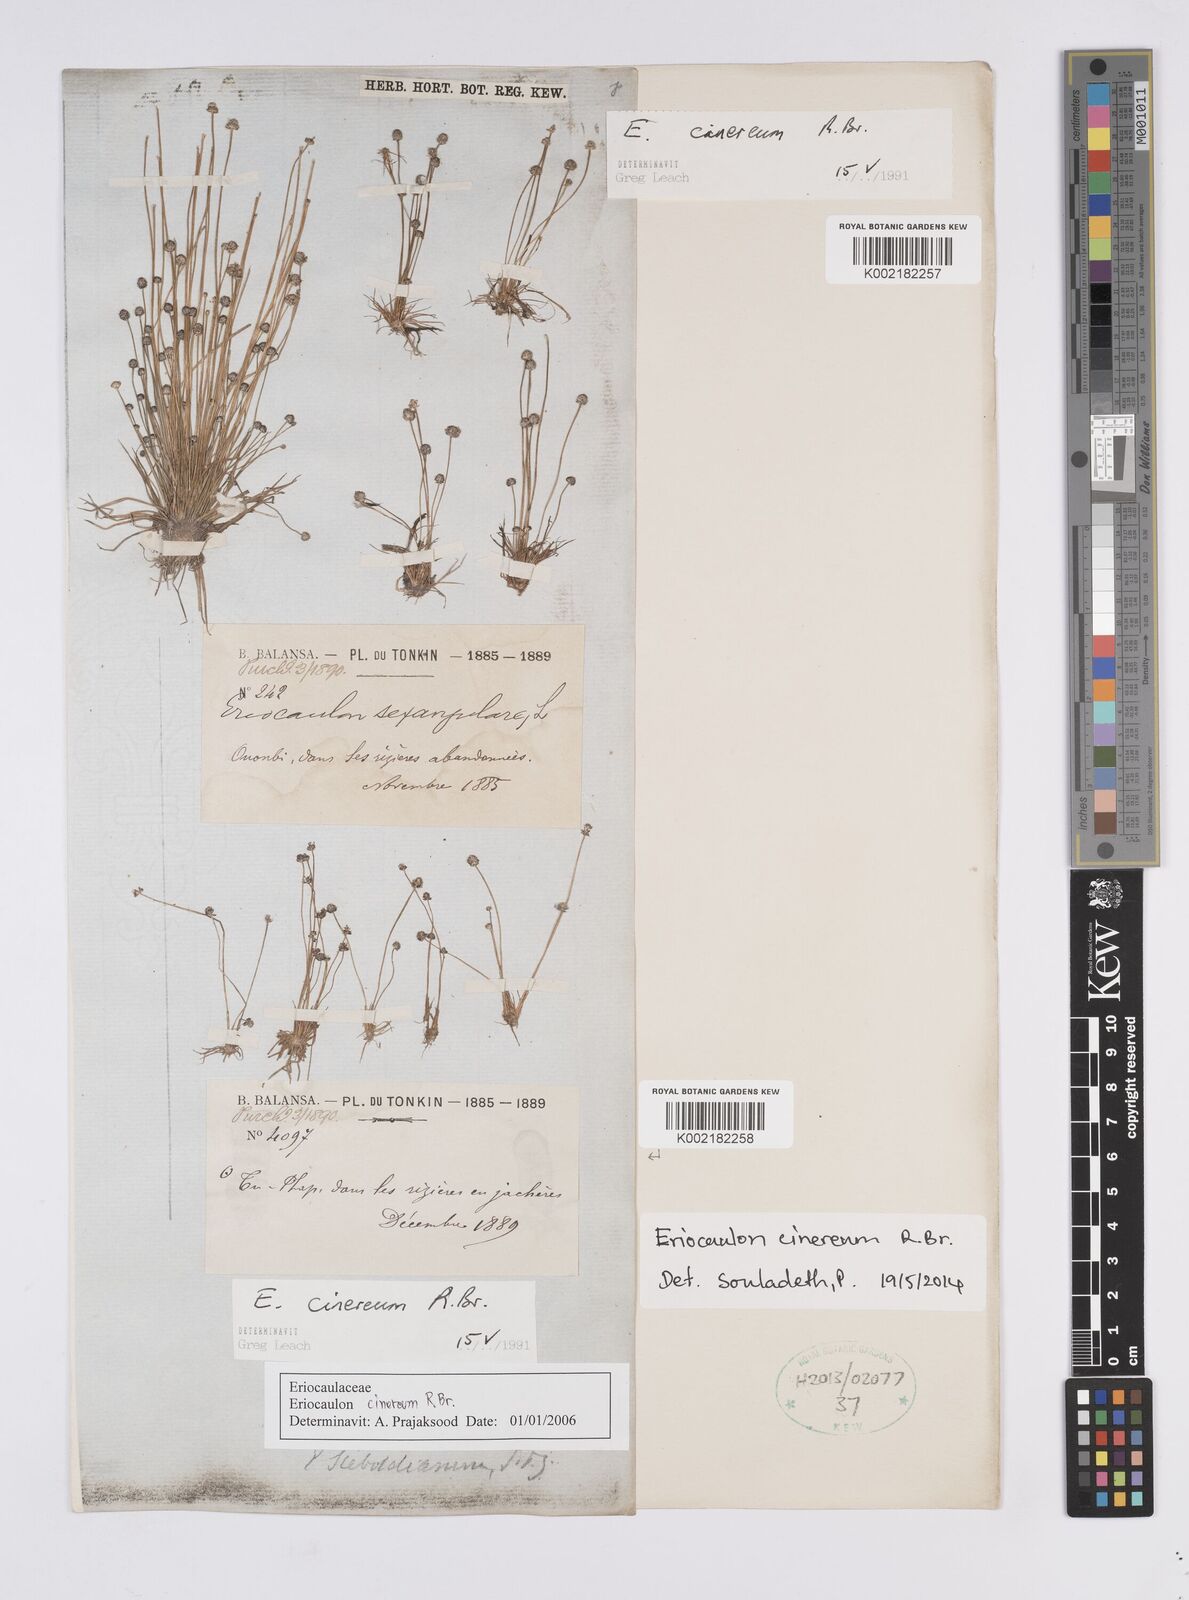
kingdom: Plantae
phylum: Tracheophyta
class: Liliopsida
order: Poales
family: Eriocaulaceae
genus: Eriocaulon
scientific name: Eriocaulon cinereum
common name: Ashy pipewort
